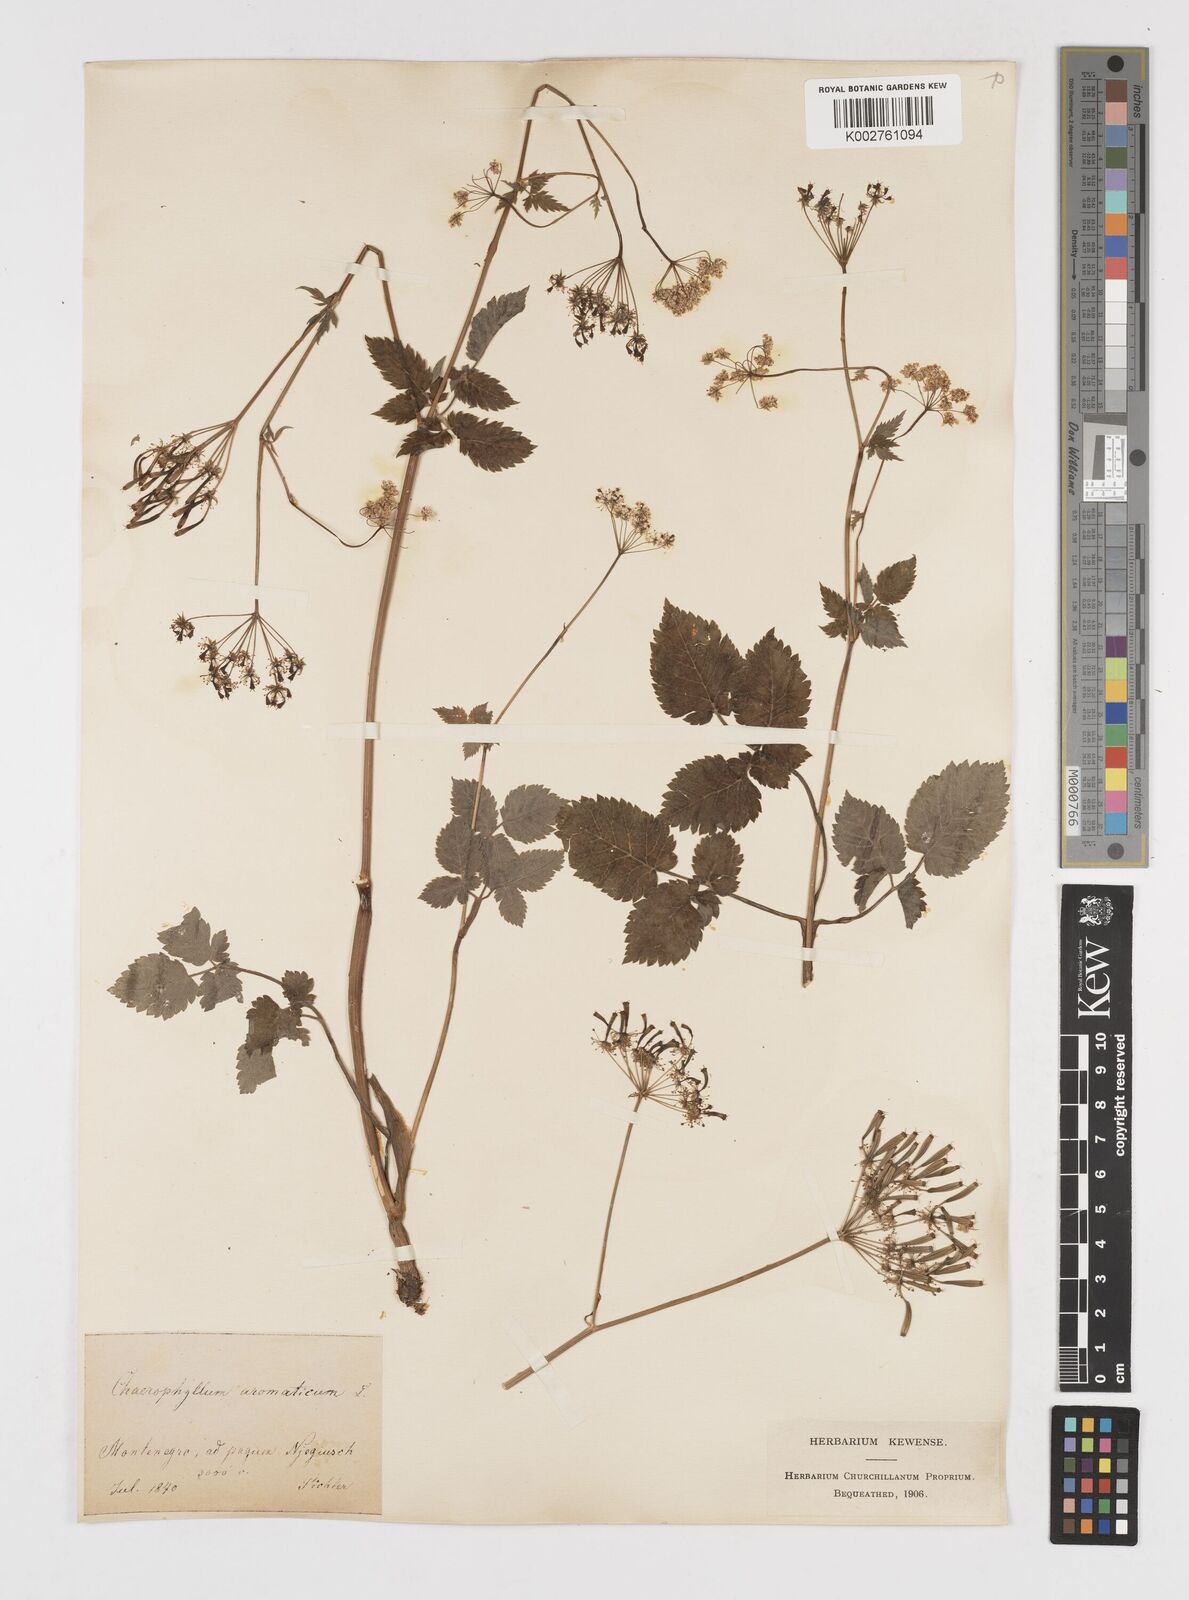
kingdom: Plantae
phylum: Tracheophyta
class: Magnoliopsida
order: Apiales
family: Apiaceae
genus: Chaerophyllum
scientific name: Chaerophyllum aromaticum
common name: Broadleaf chervil
